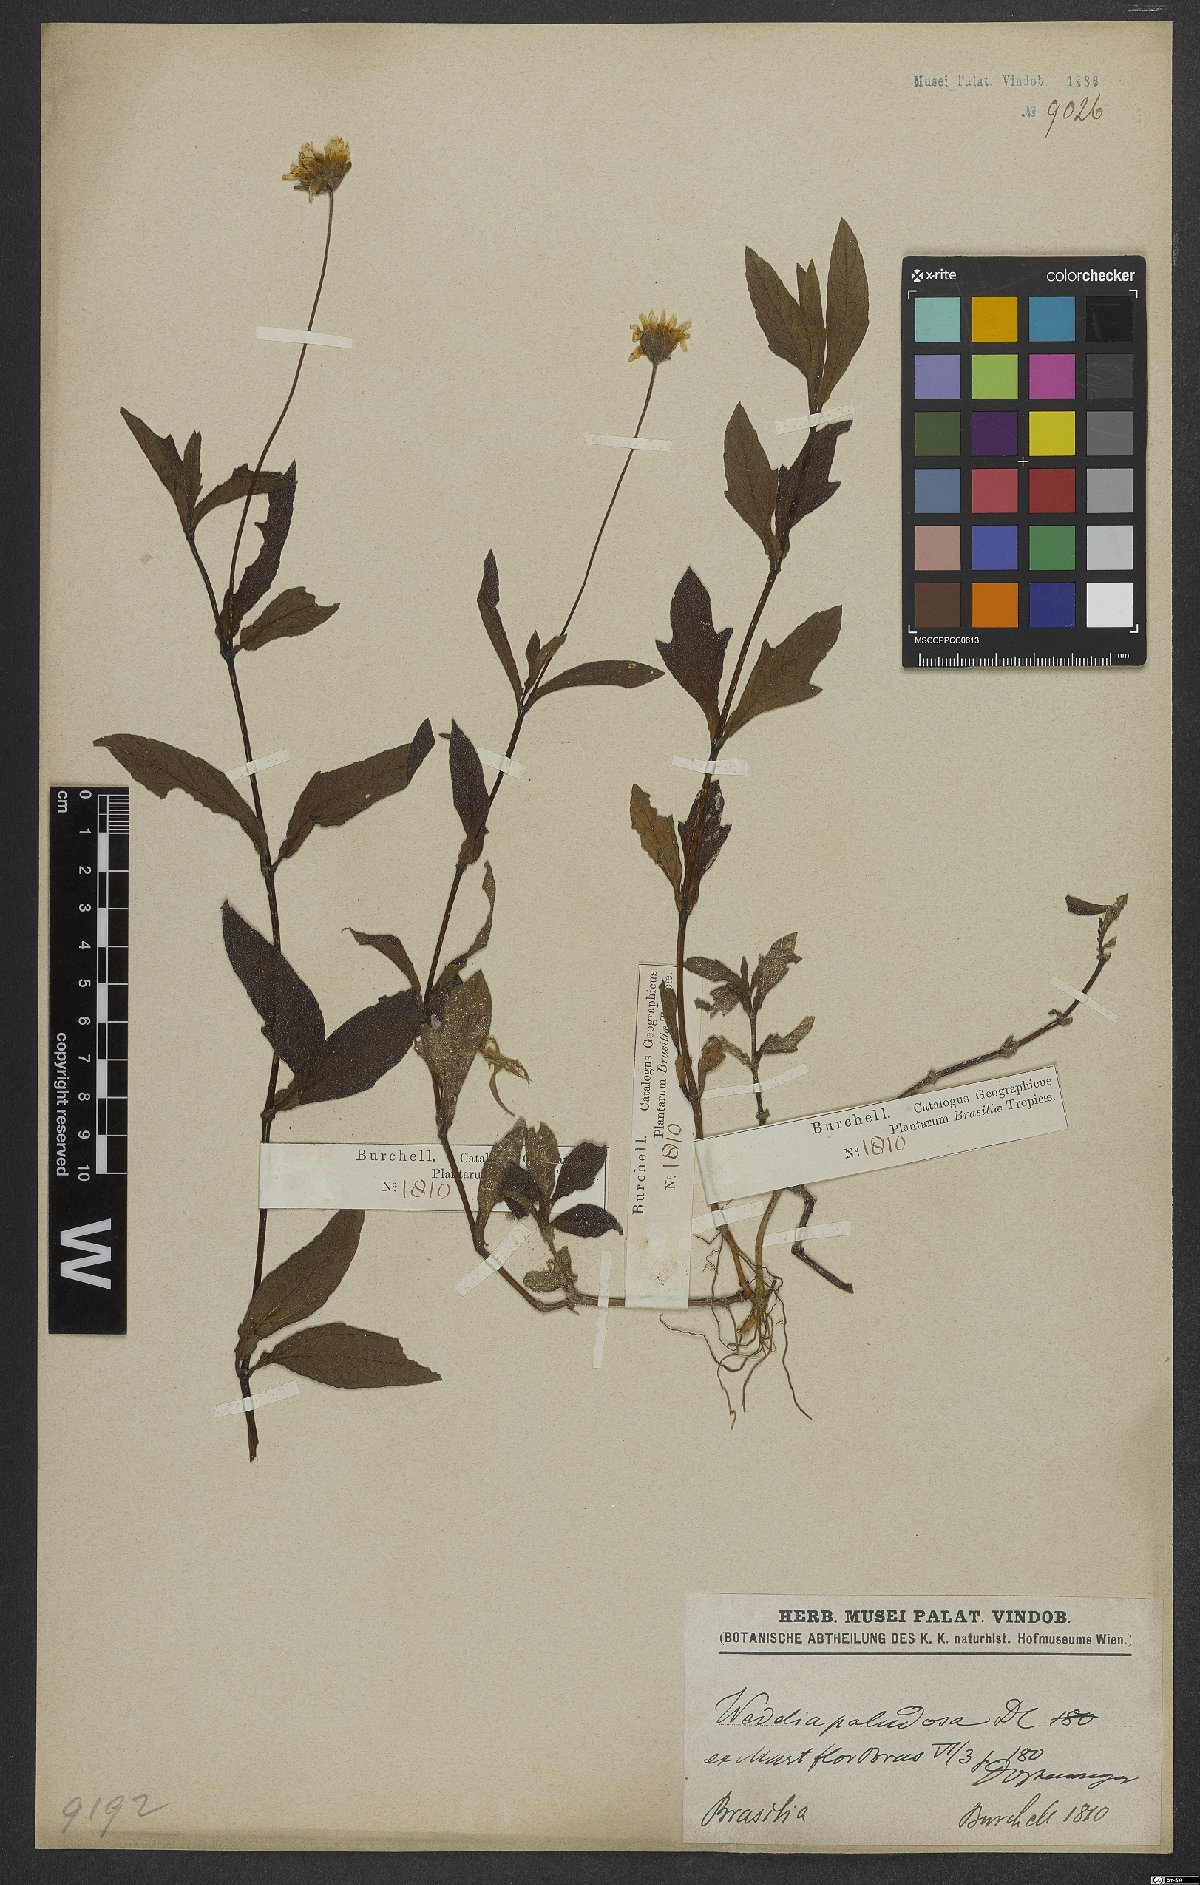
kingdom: Plantae
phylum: Tracheophyta
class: Magnoliopsida
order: Asterales
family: Asteraceae
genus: Sphagneticola
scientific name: Sphagneticola trilobata
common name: Bay biscayne creeping-oxeye
